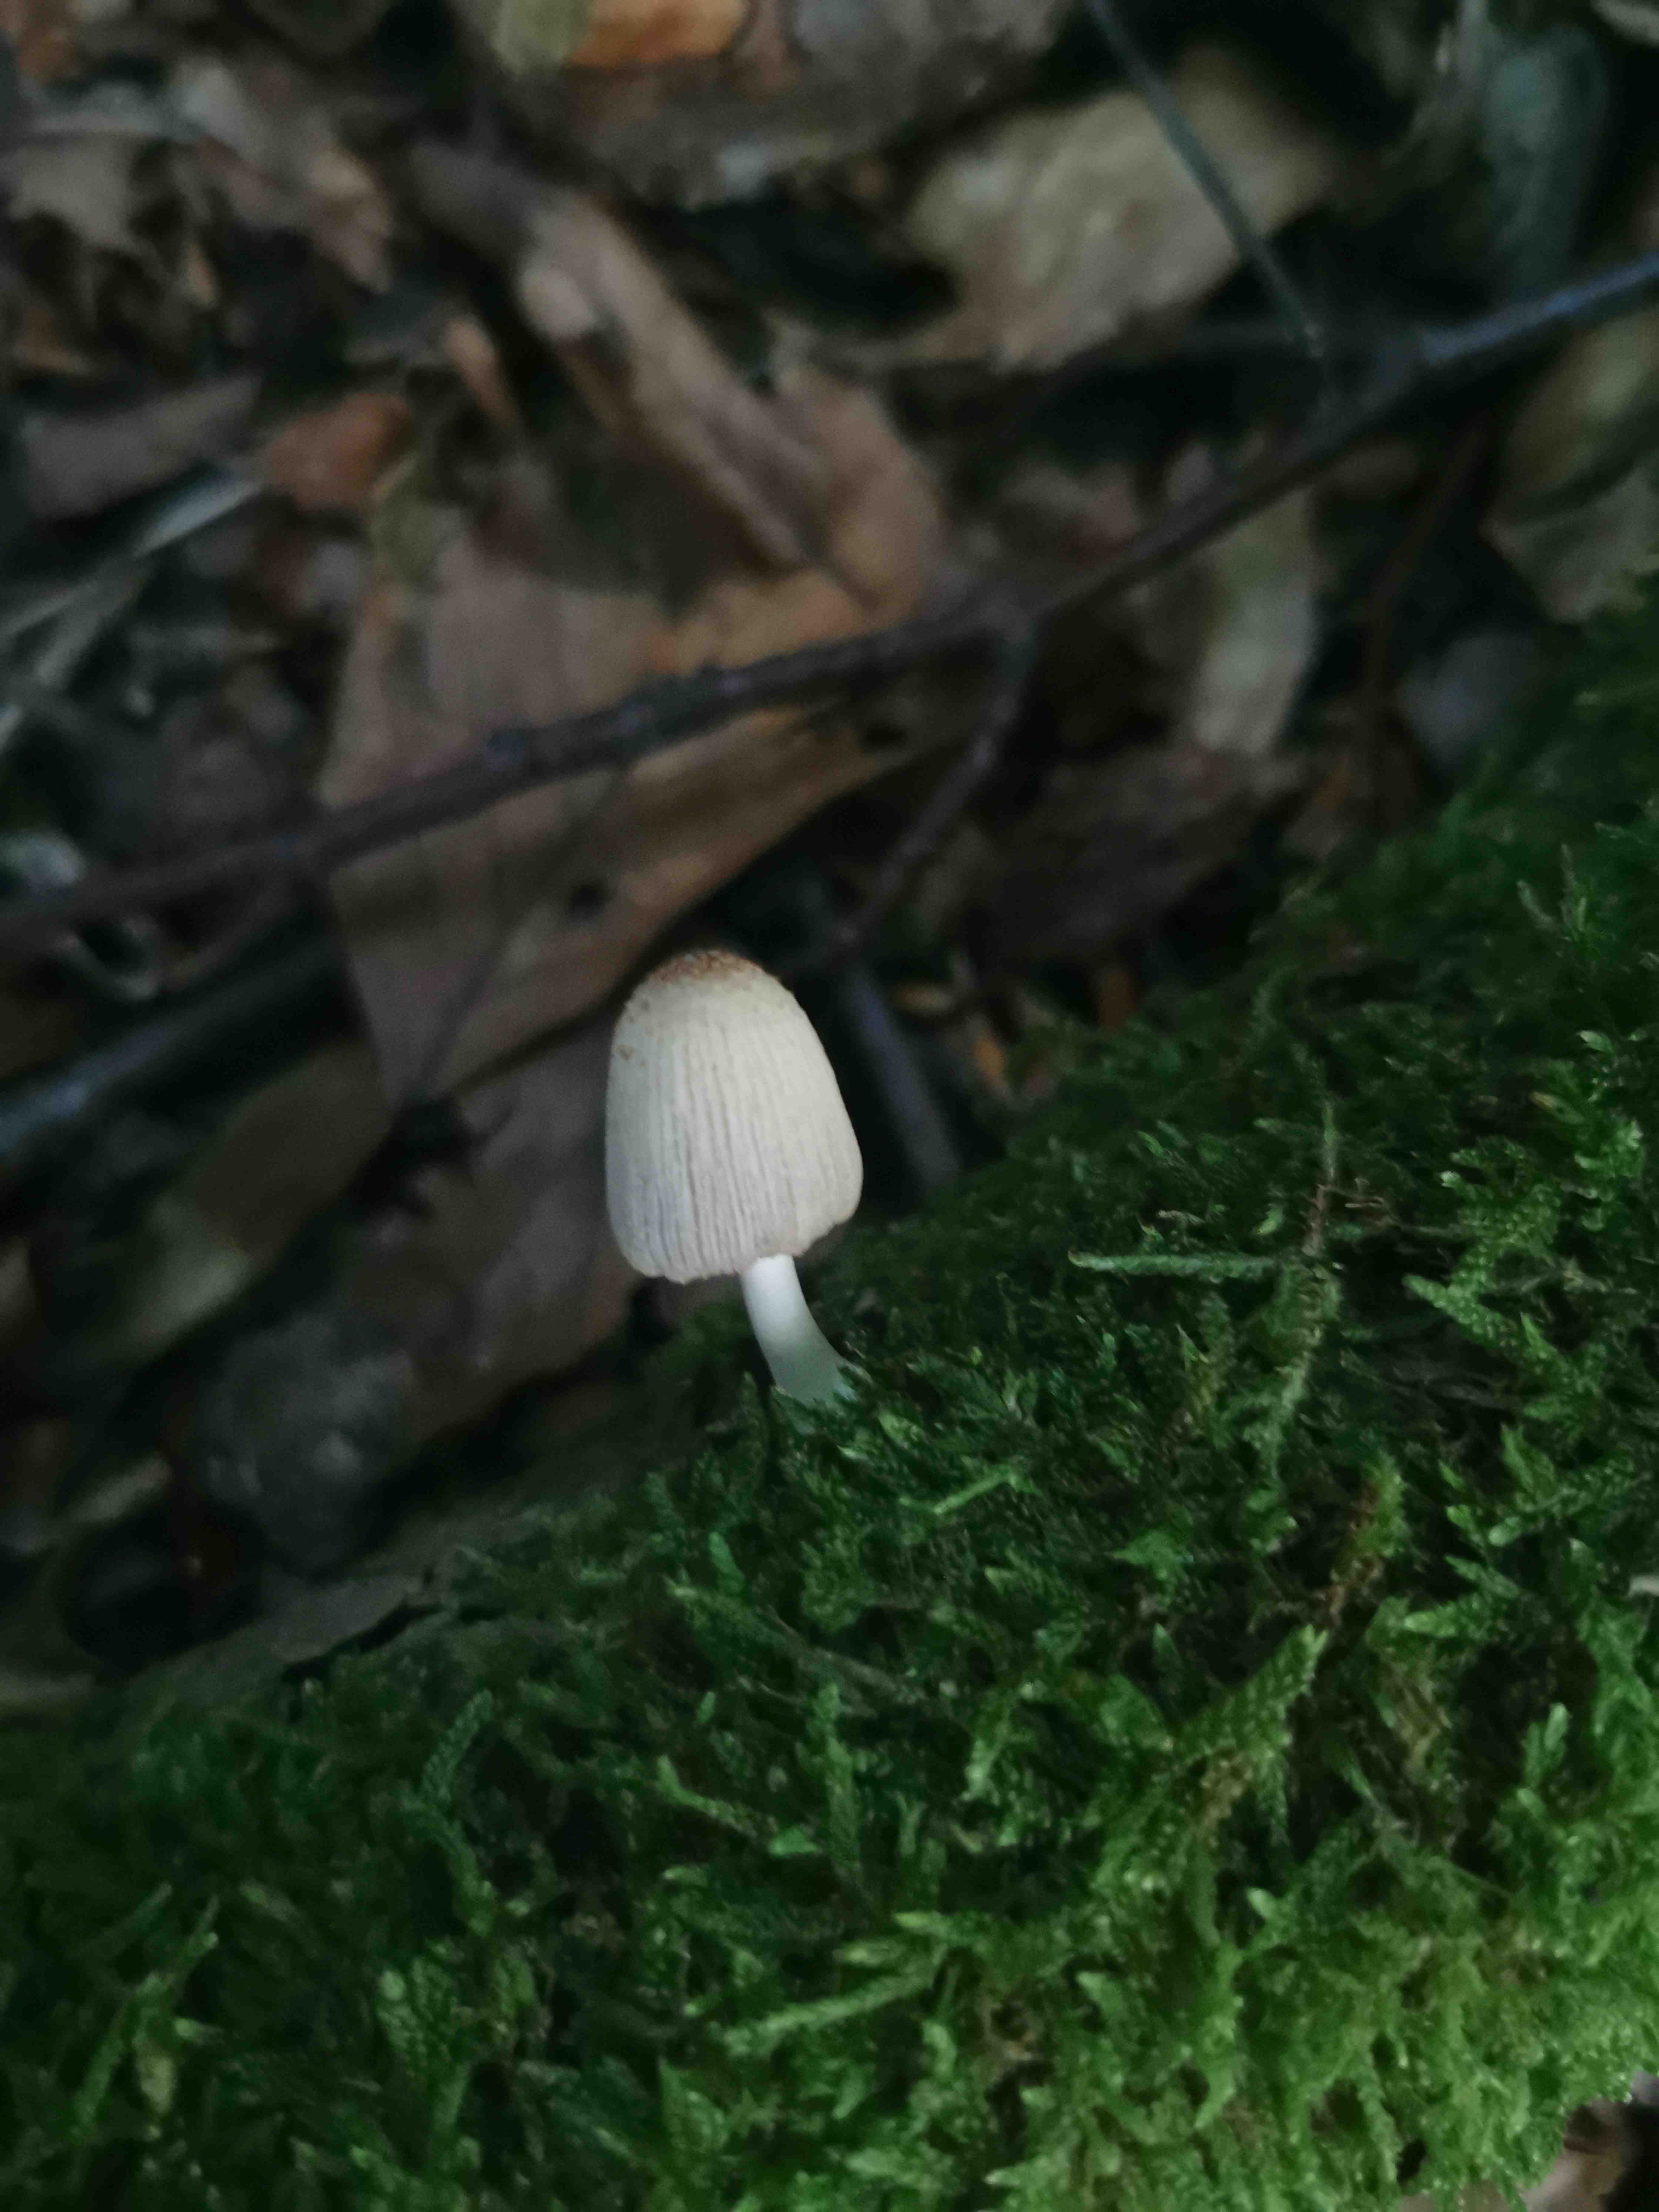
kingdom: Fungi
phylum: Basidiomycota
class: Agaricomycetes
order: Agaricales
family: Psathyrellaceae
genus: Coprinellus
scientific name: Coprinellus
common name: blækhat
